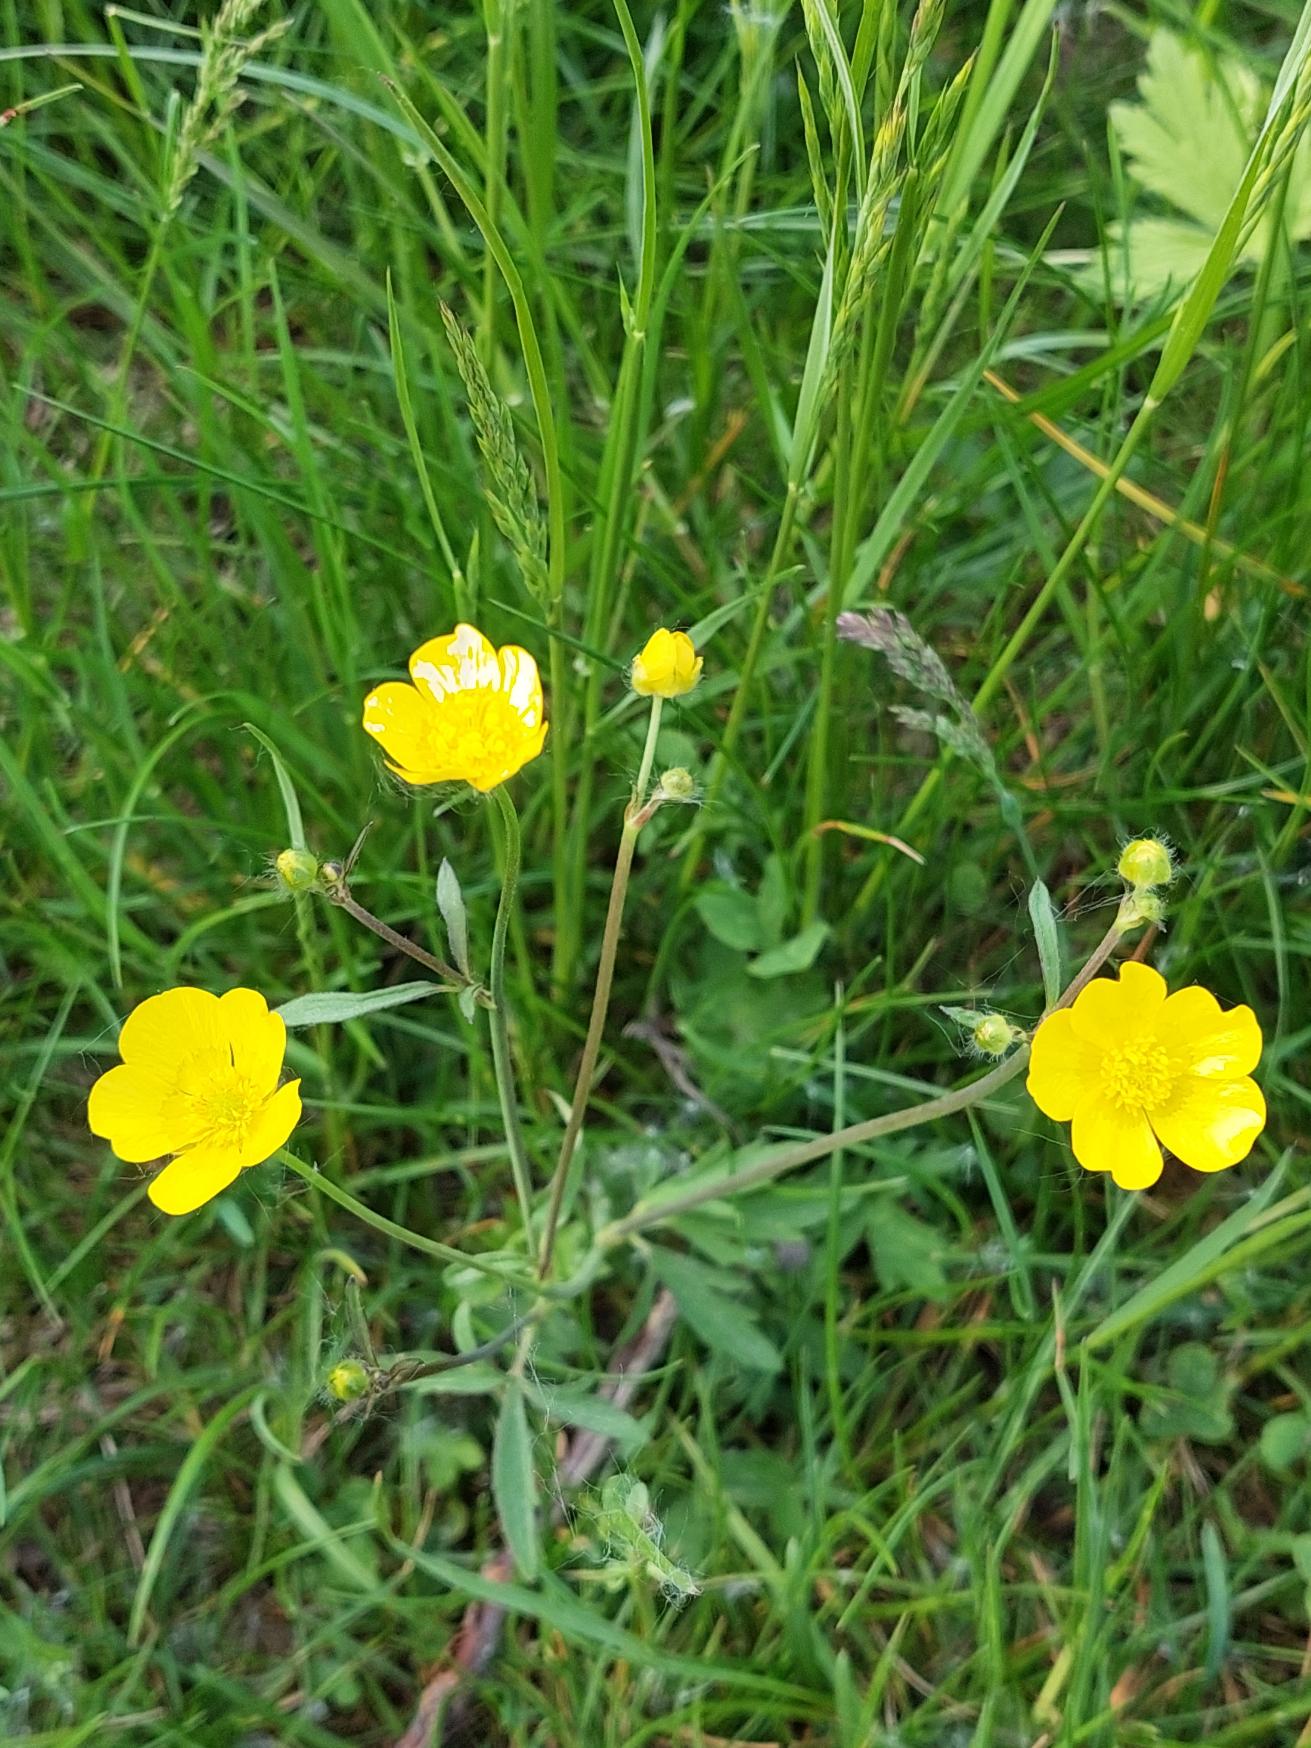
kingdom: Plantae
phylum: Tracheophyta
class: Magnoliopsida
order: Ranunculales
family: Ranunculaceae
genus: Ranunculus
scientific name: Ranunculus acris
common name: Bidende ranunkel
